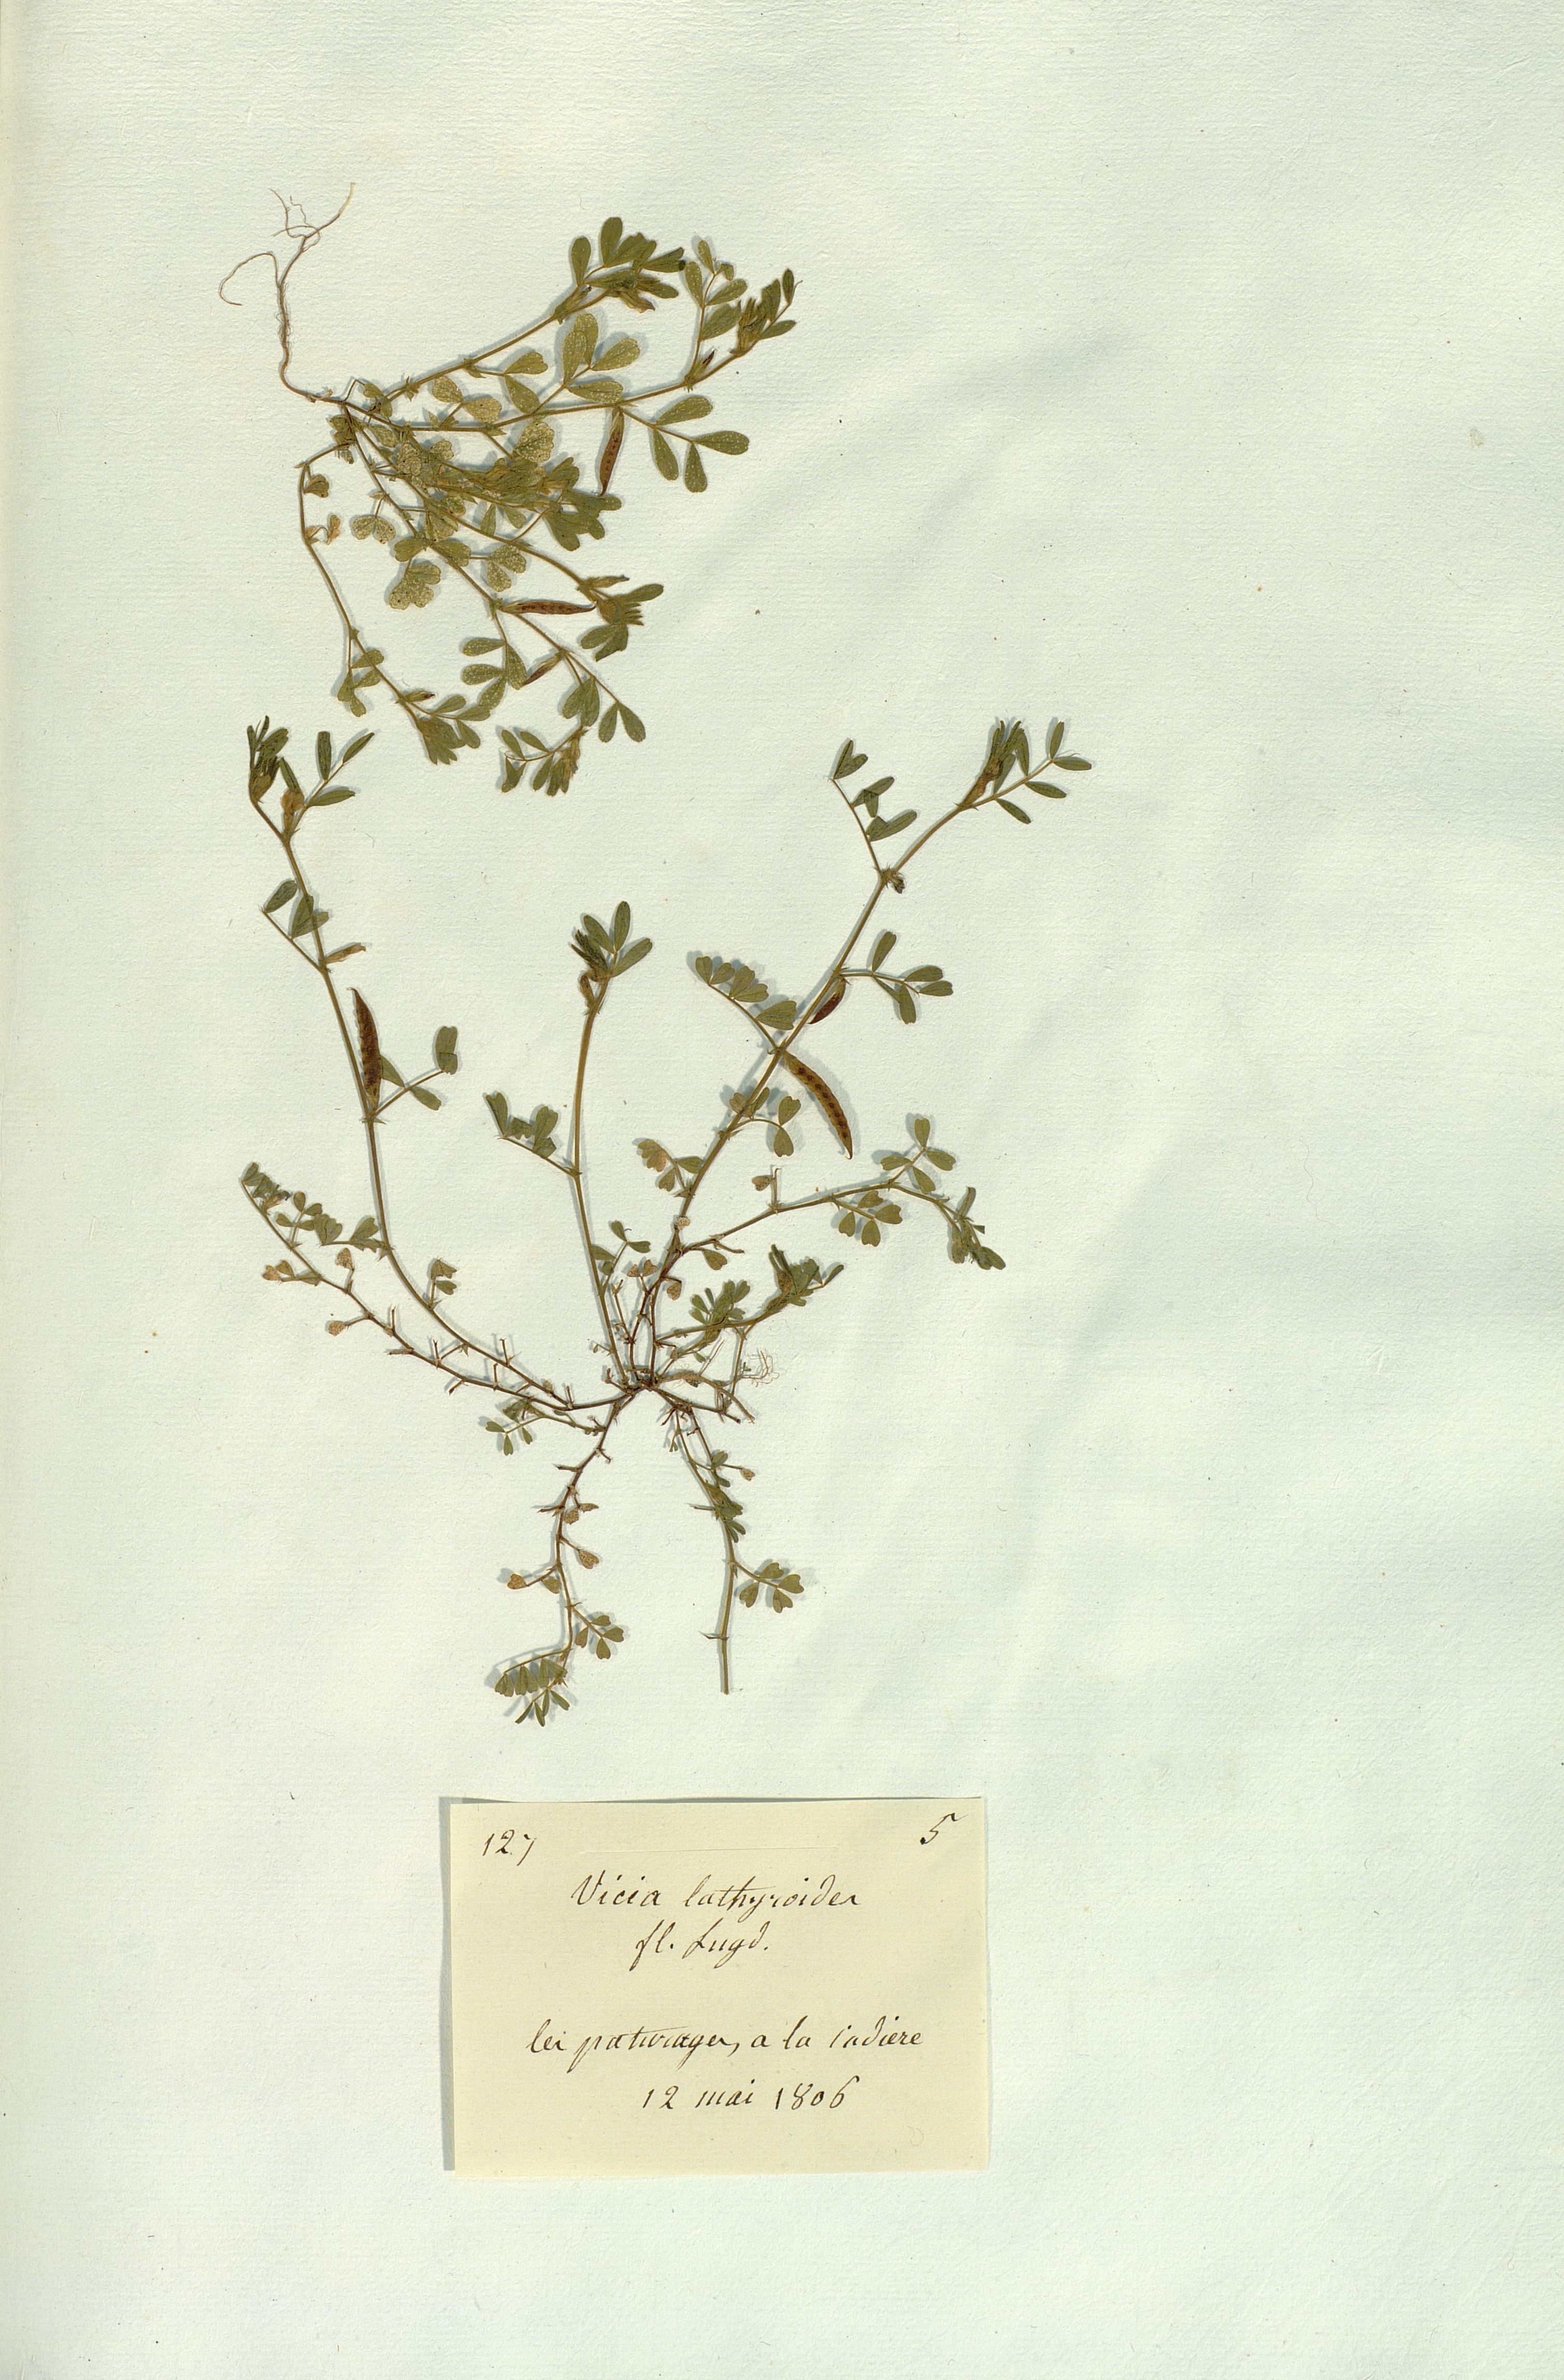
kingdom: Plantae
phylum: Tracheophyta
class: Magnoliopsida
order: Fabales
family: Fabaceae
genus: Vicia
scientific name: Vicia lathyroides
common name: Spring vetch
